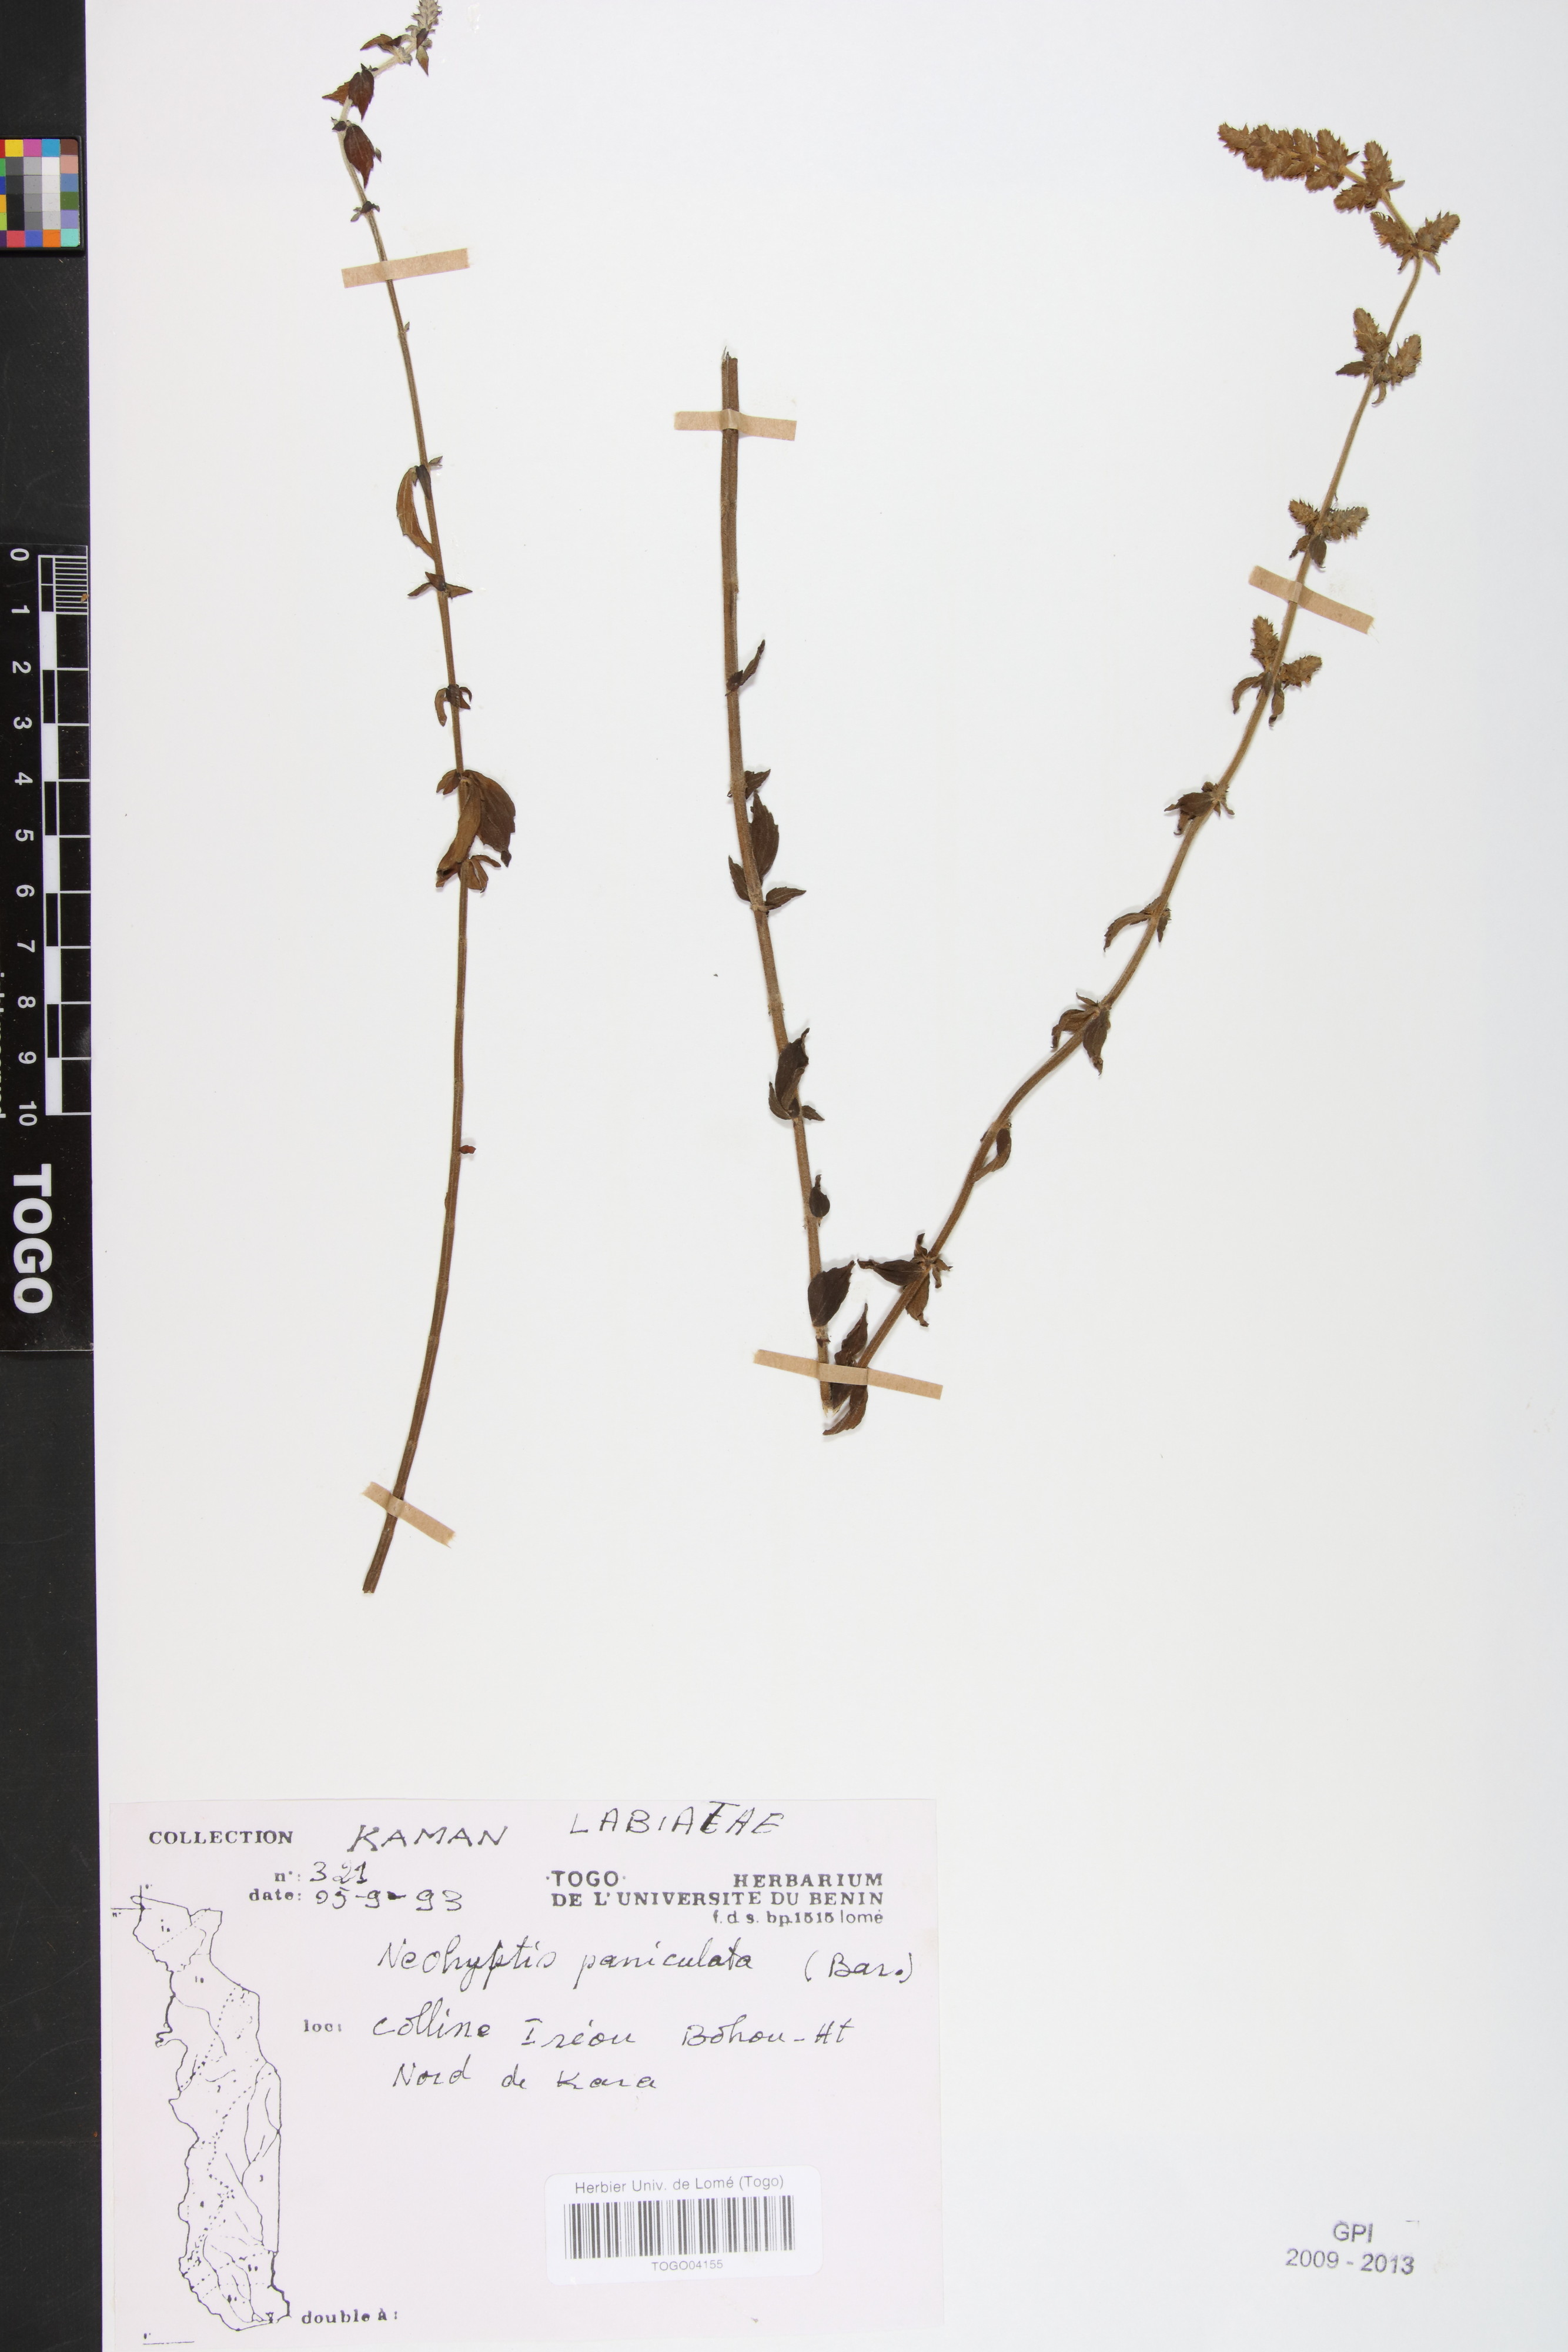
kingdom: Plantae
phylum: Tracheophyta
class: Magnoliopsida
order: Lamiales
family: Lamiaceae
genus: Coleus
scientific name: Coleus guerkei
